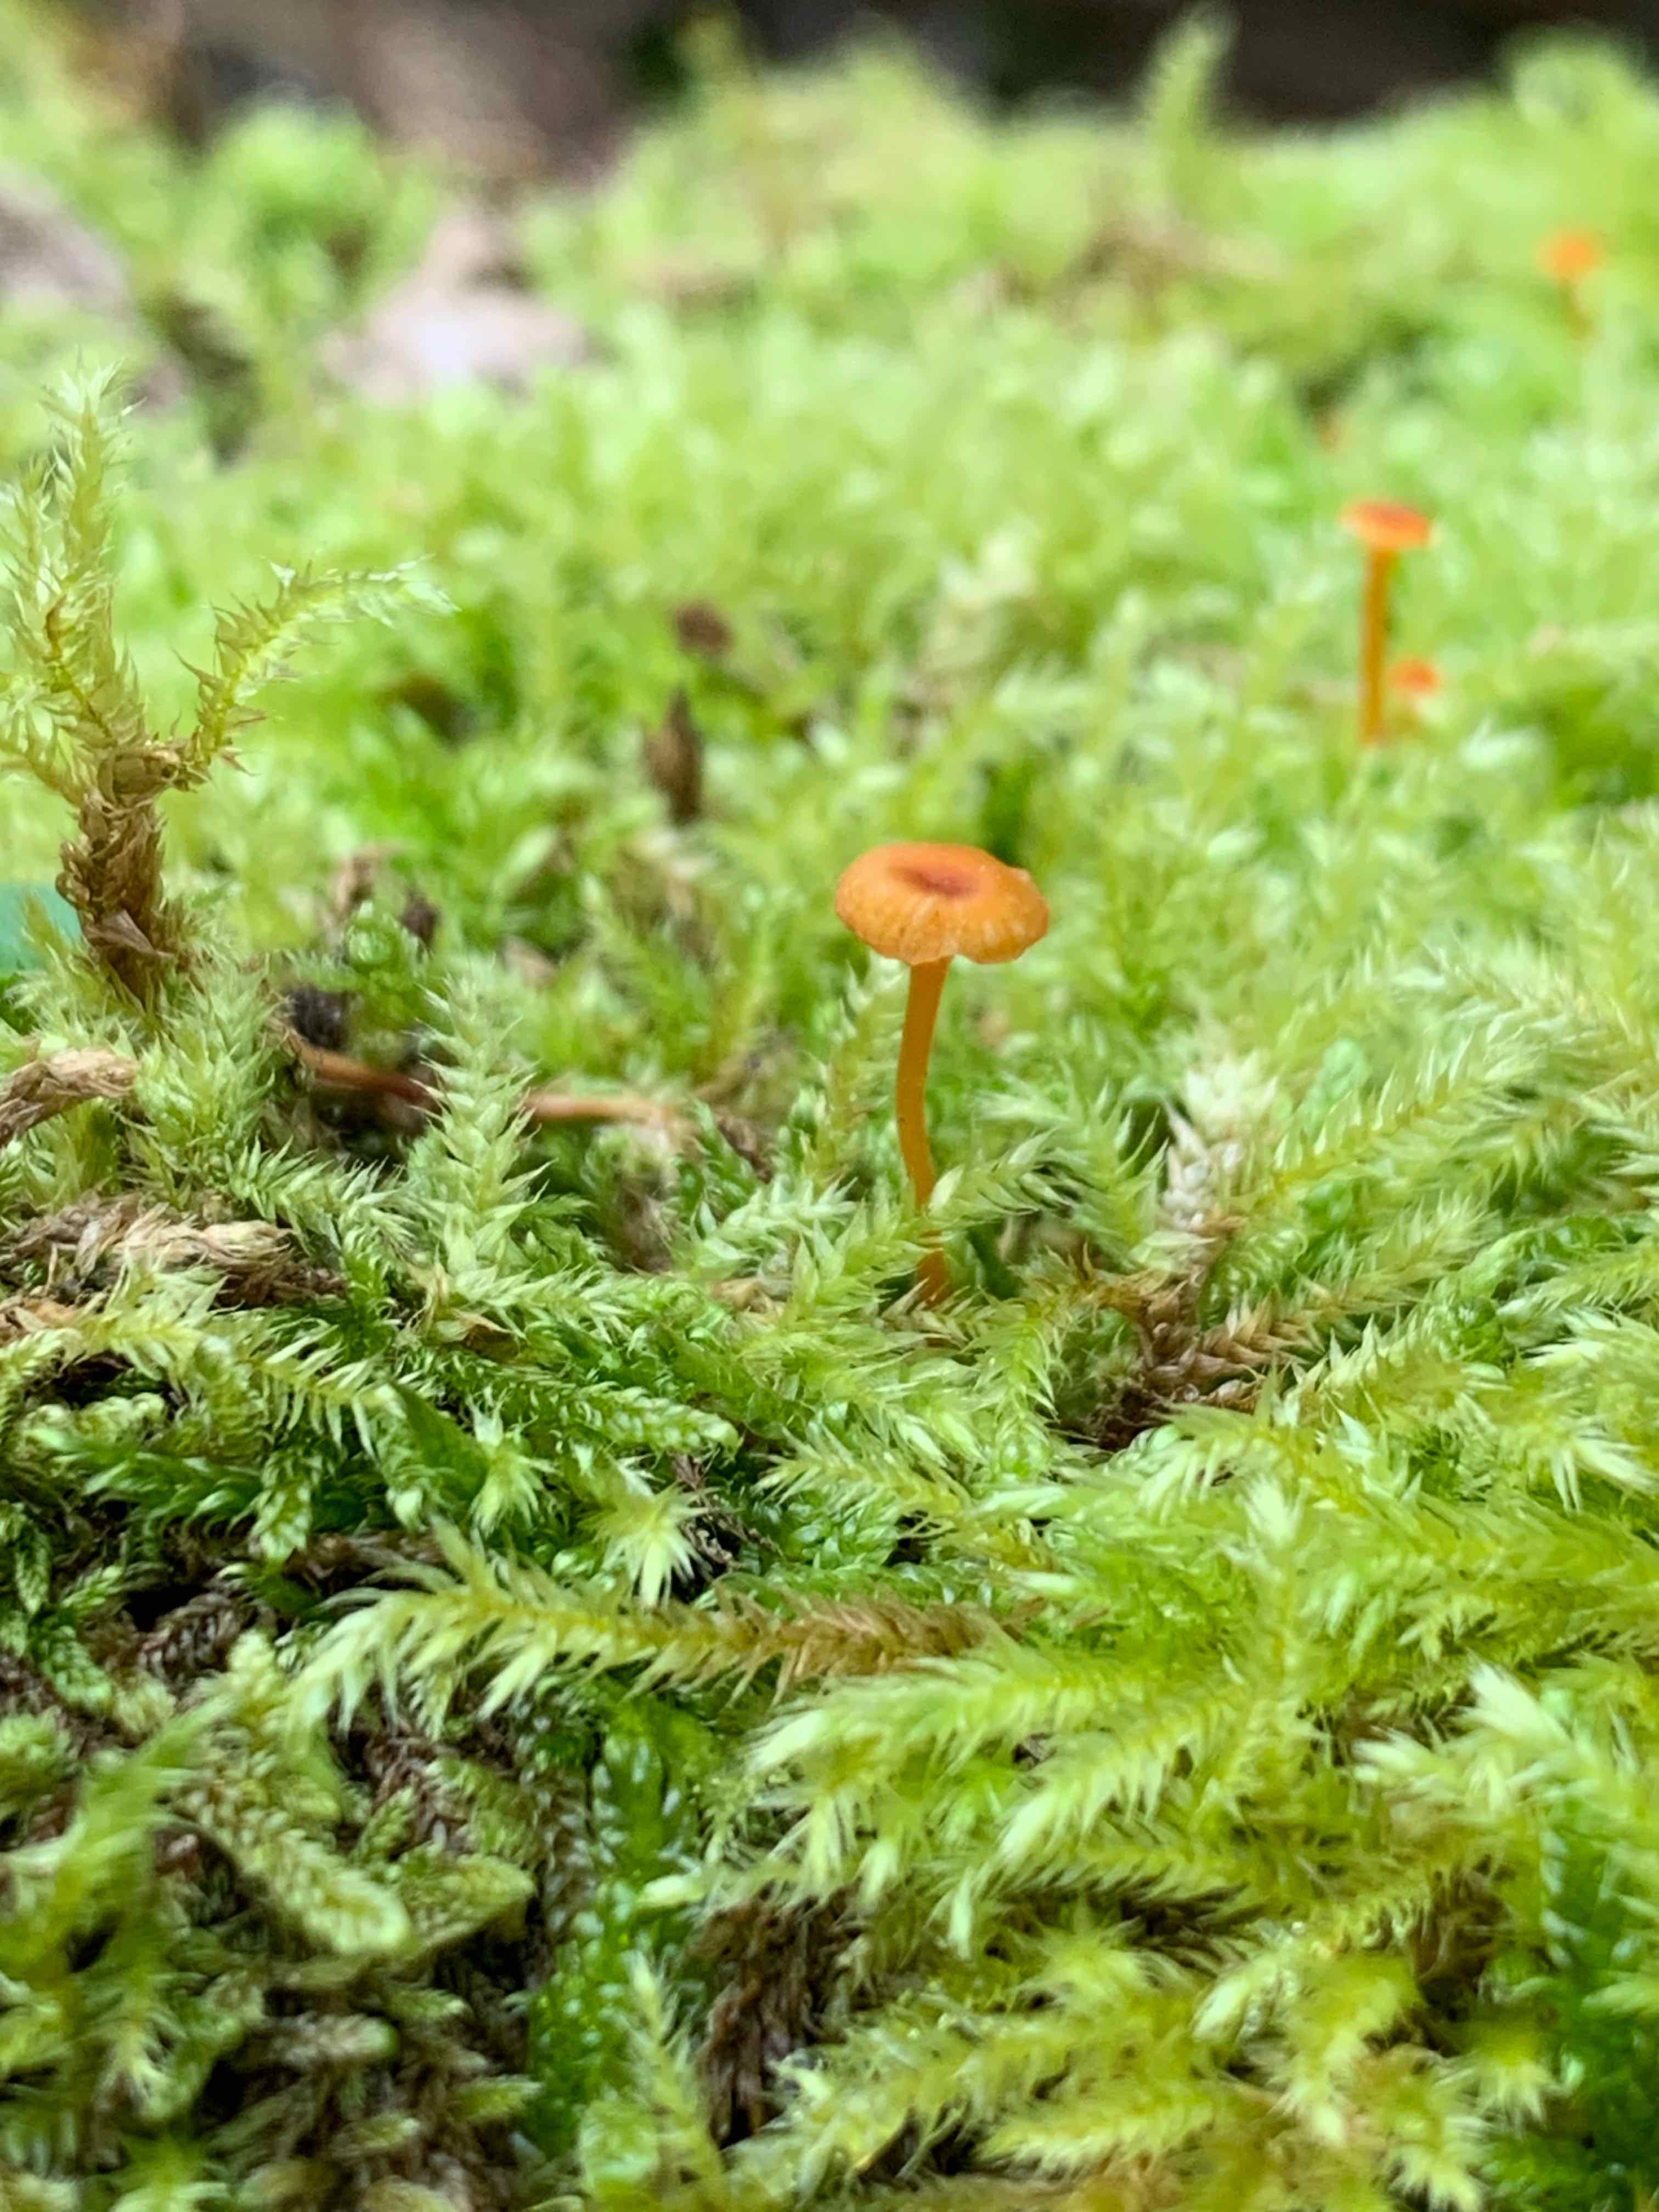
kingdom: Fungi
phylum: Basidiomycota
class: Agaricomycetes
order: Hymenochaetales
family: Rickenellaceae
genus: Rickenella
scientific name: Rickenella fibula
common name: orange mosnavlehat
